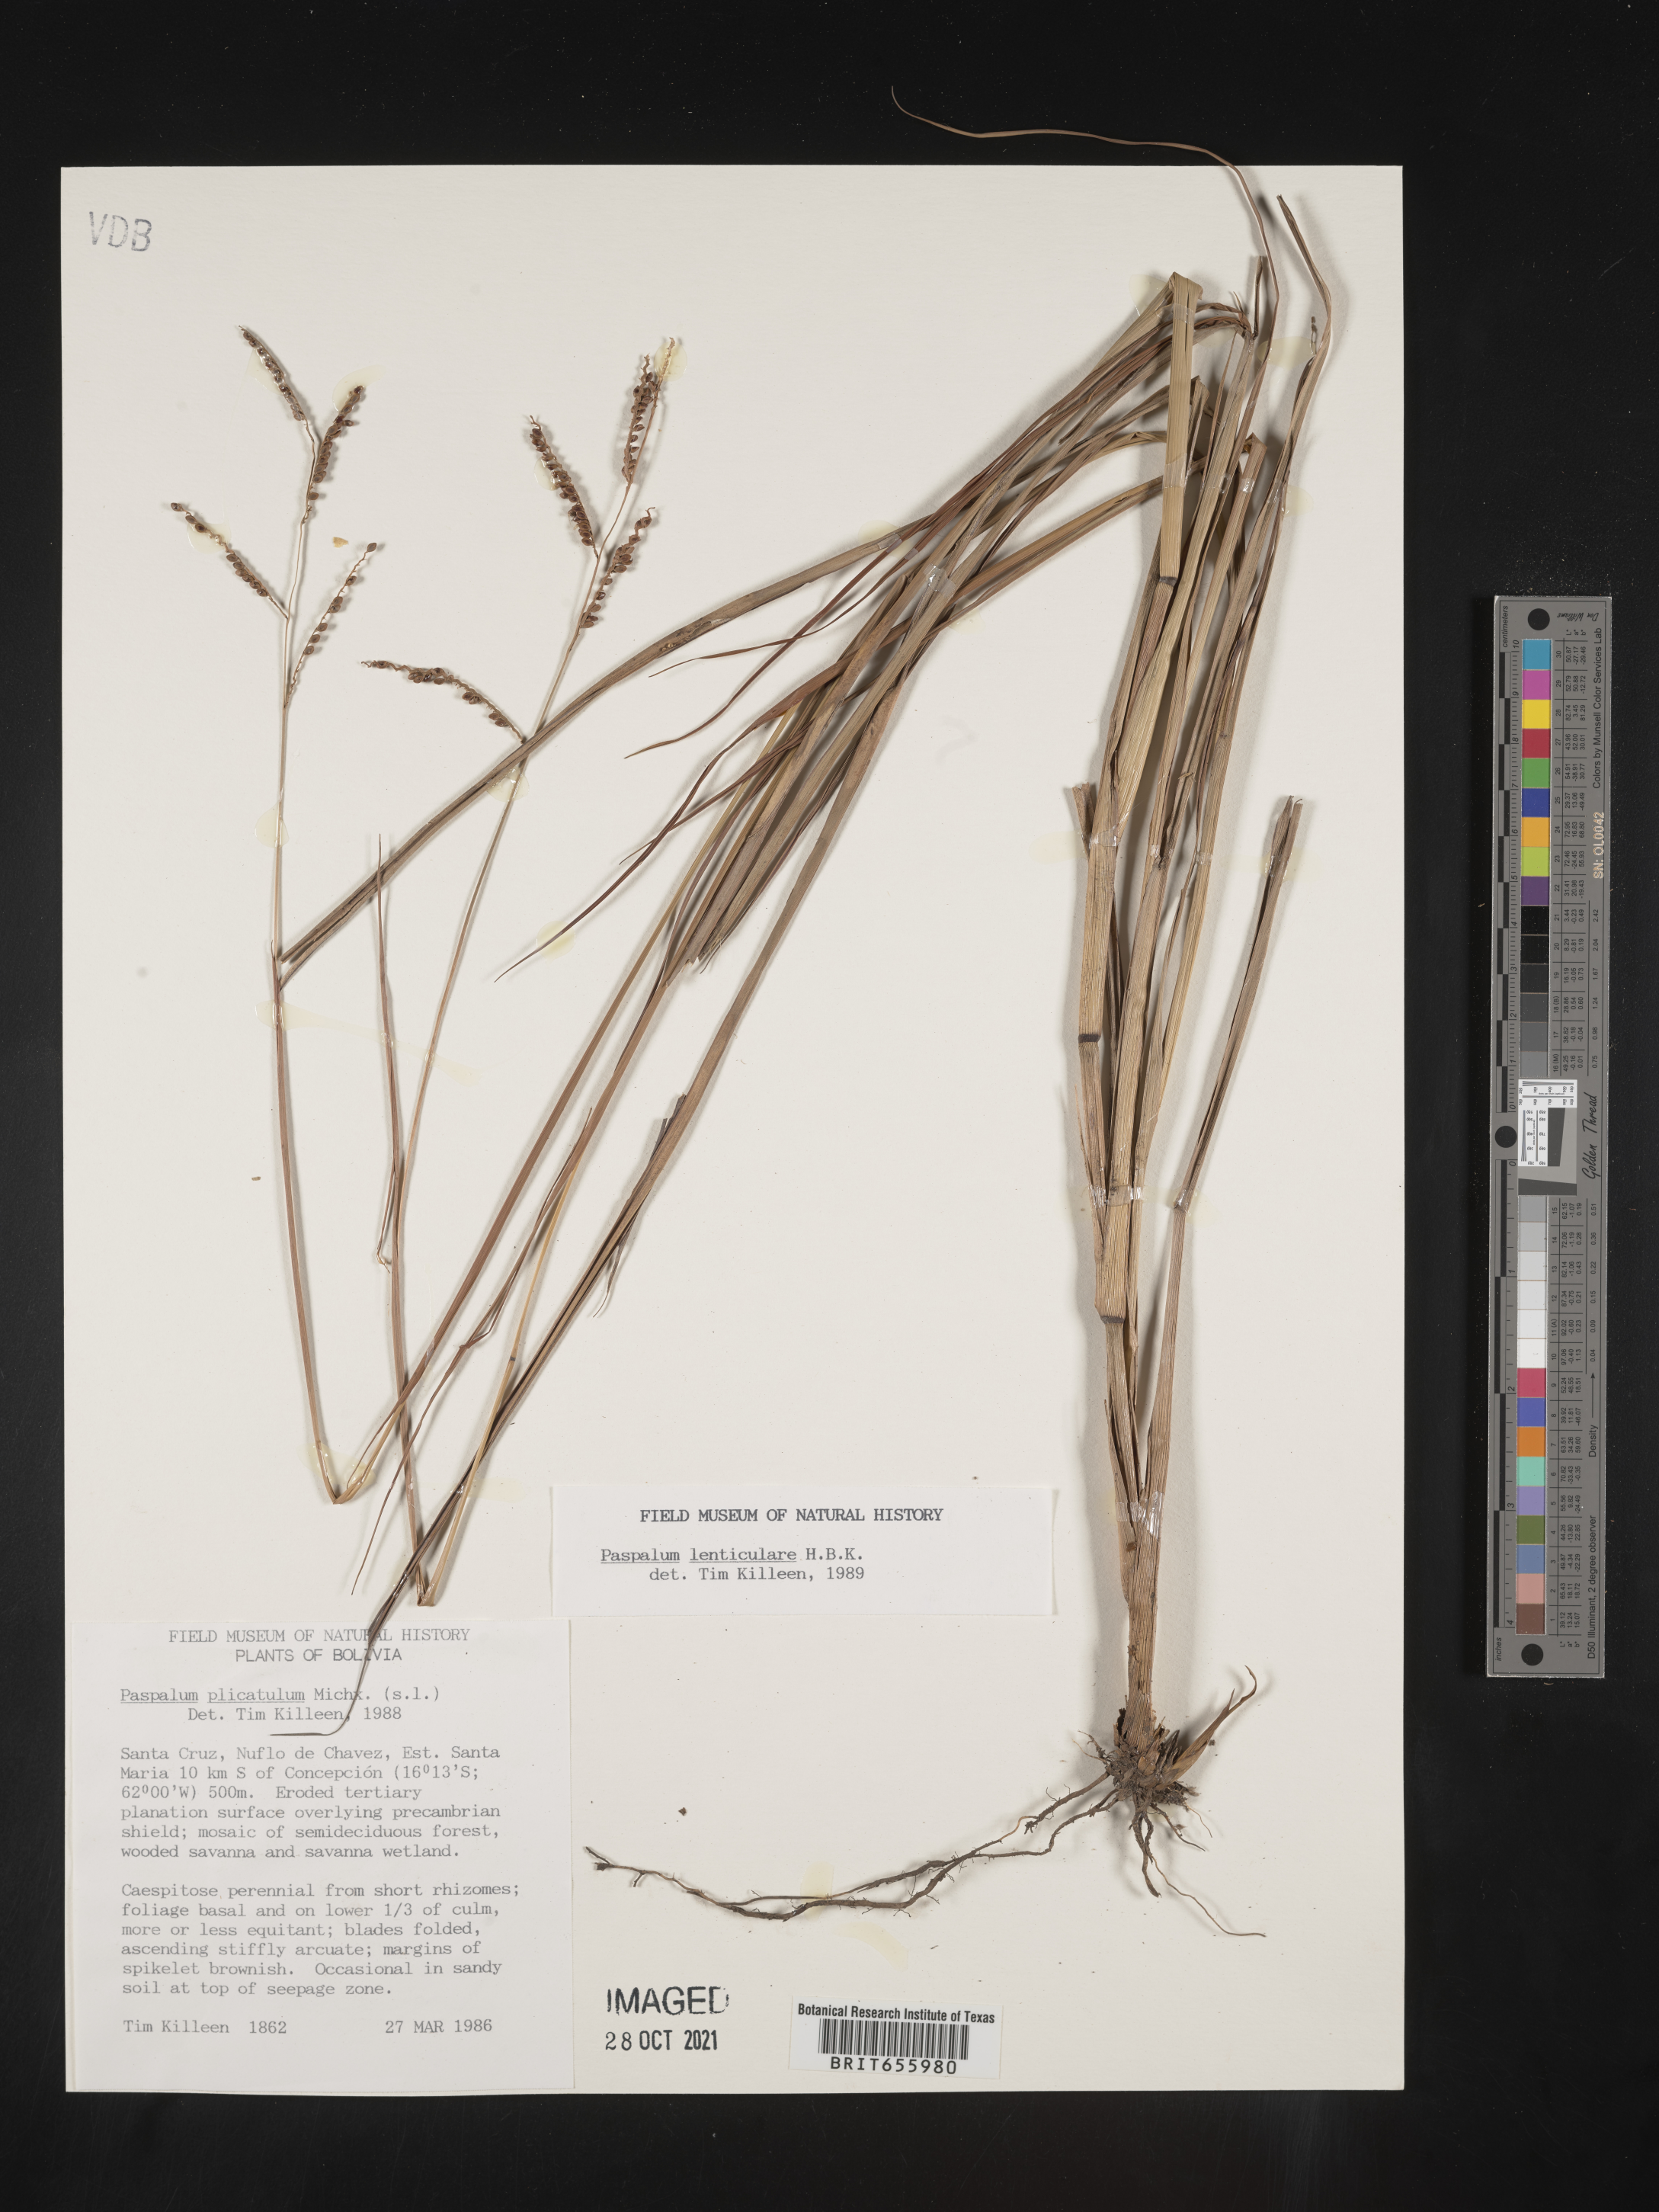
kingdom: Plantae
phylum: Tracheophyta
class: Liliopsida
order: Poales
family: Poaceae
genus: Paspalum
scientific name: Paspalum
